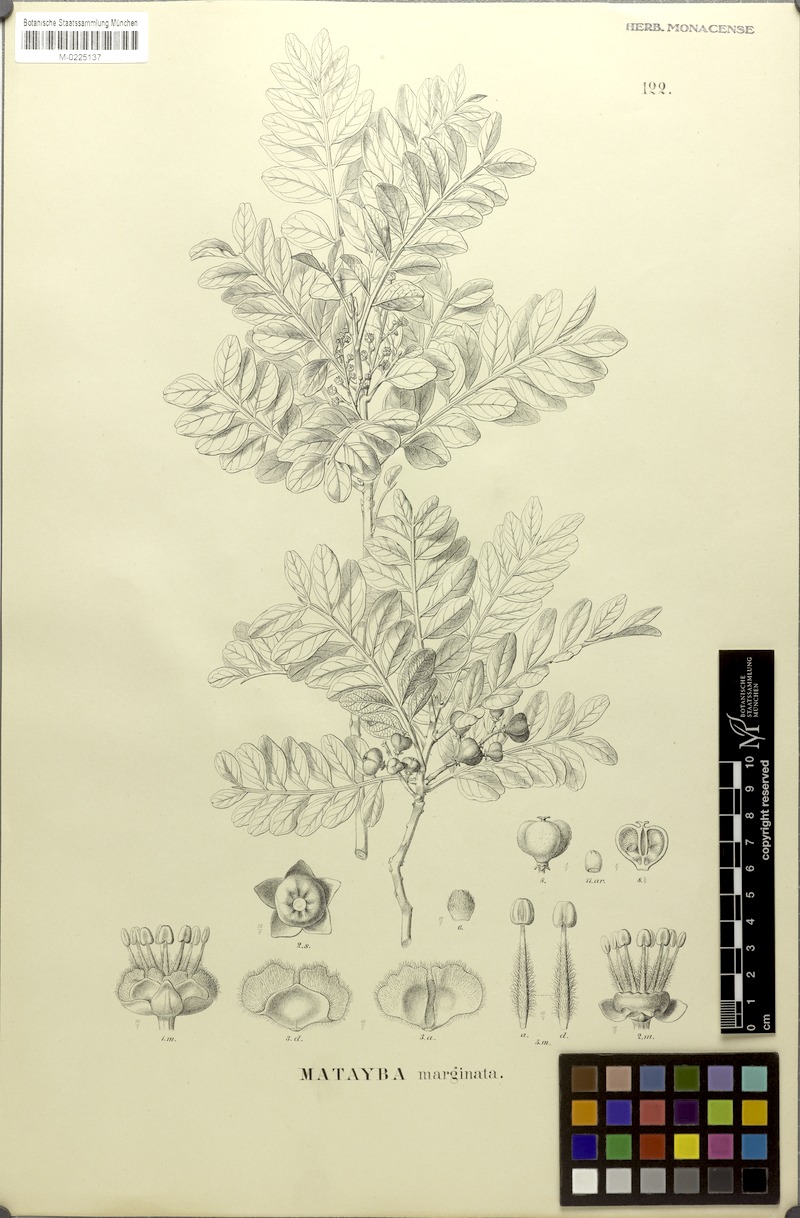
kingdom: Plantae
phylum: Tracheophyta
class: Magnoliopsida
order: Sapindales
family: Sapindaceae
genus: Matayba
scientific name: Matayba marginata
